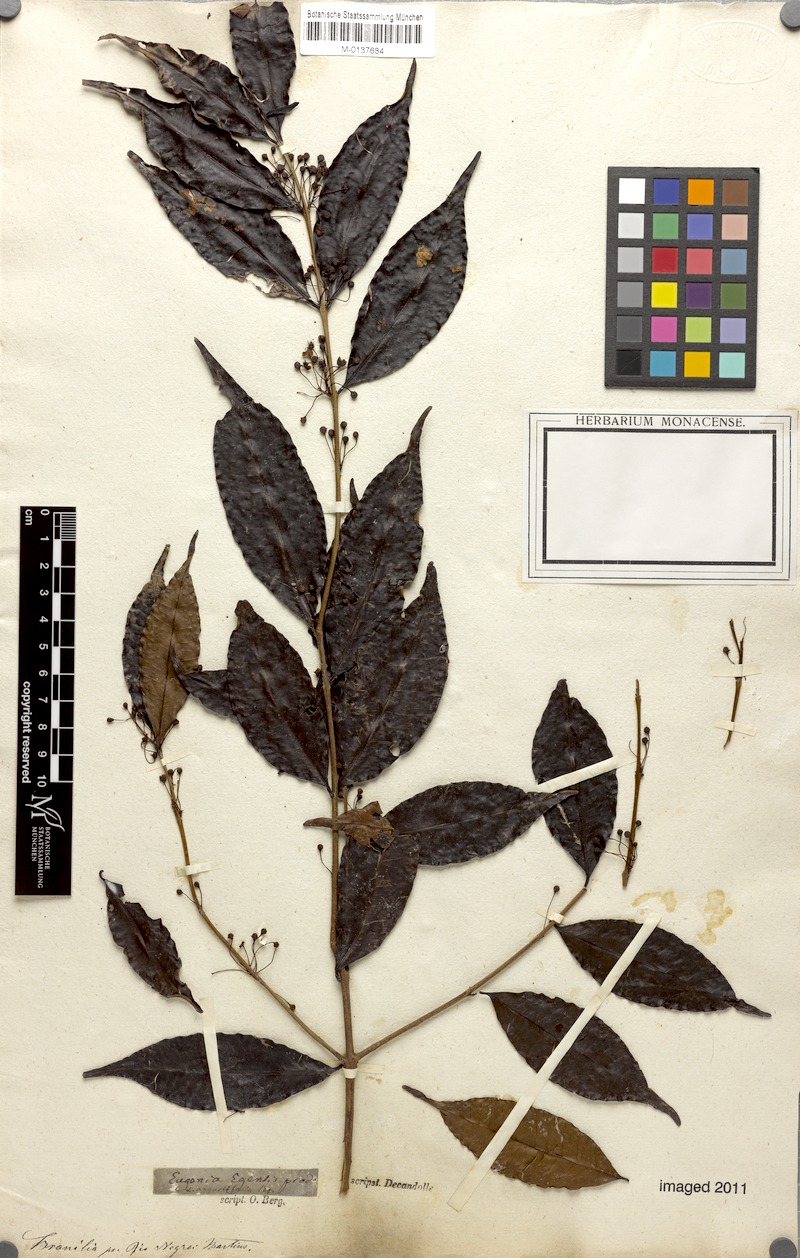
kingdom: Plantae
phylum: Tracheophyta
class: Magnoliopsida
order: Myrtales
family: Myrtaceae
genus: Eugenia
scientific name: Eugenia egensis
